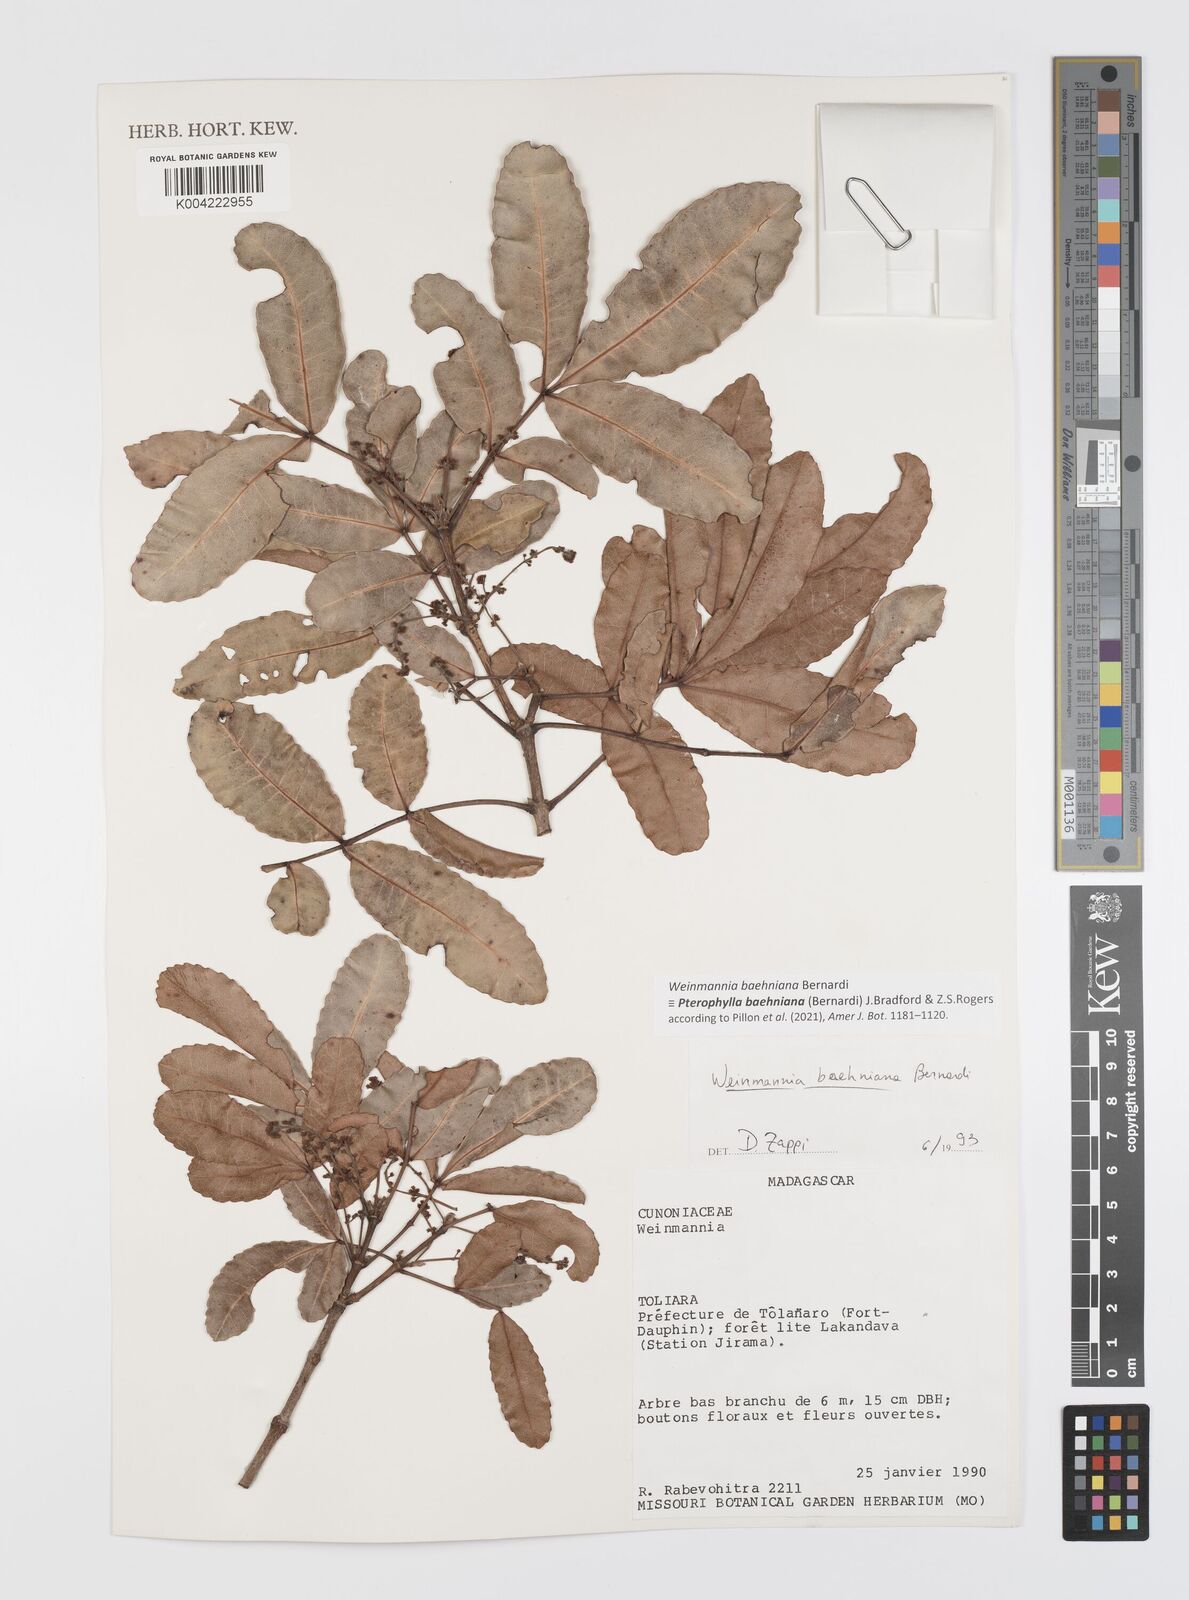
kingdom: Plantae
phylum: Tracheophyta
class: Magnoliopsida
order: Oxalidales
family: Cunoniaceae
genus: Pterophylla
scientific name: Pterophylla baehniana
